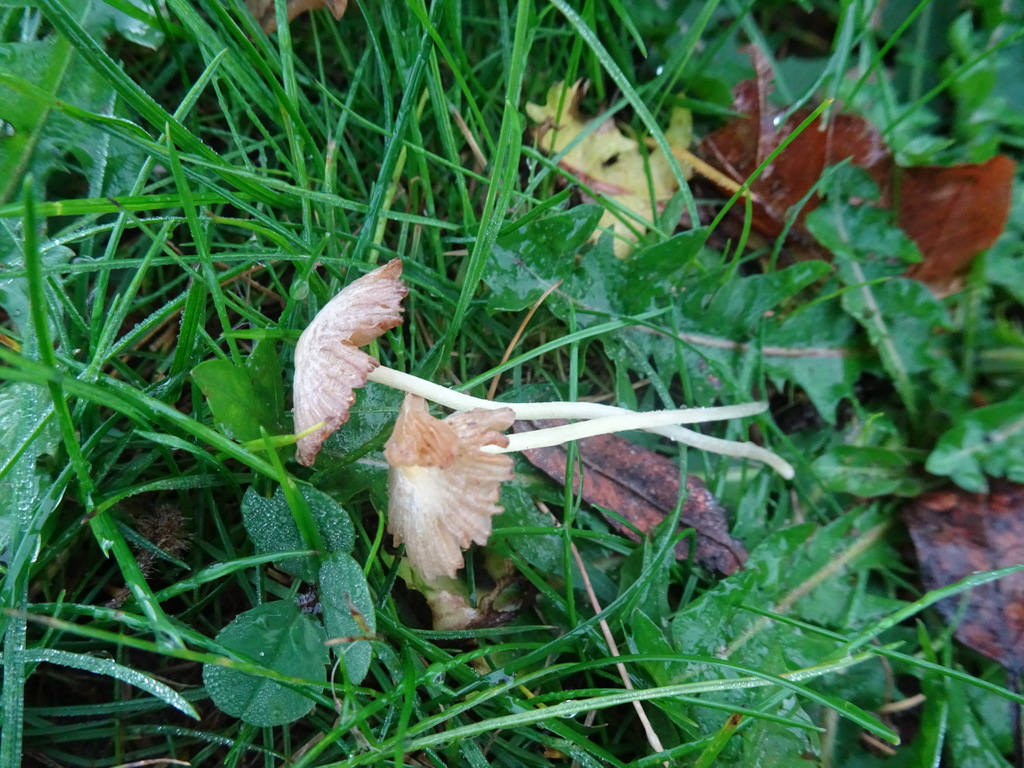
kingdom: Fungi
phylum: Basidiomycota
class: Agaricomycetes
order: Agaricales
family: Bolbitiaceae
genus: Bolbitius
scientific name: Bolbitius titubans
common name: almindelig gulhat
